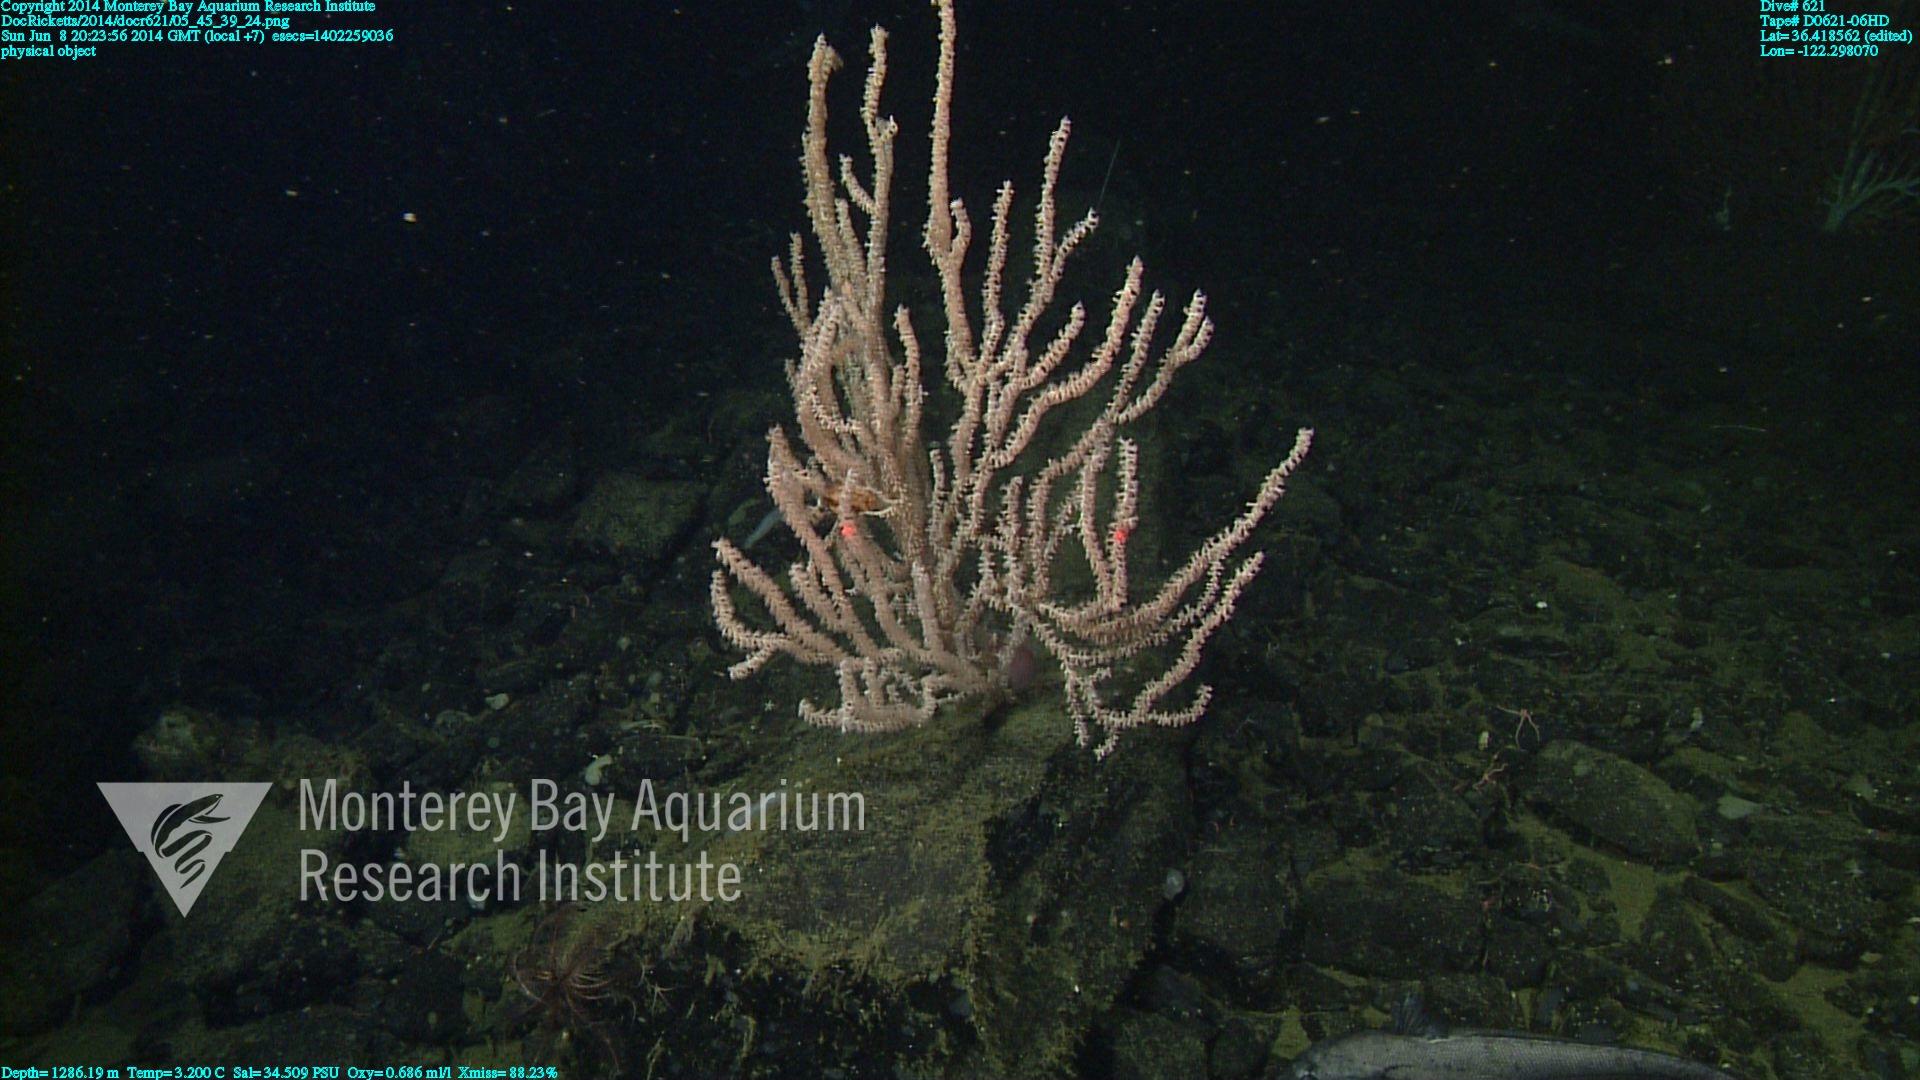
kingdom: Animalia
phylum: Cnidaria
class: Anthozoa
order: Scleralcyonacea
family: Keratoisididae
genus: Keratoisis
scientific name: Keratoisis
